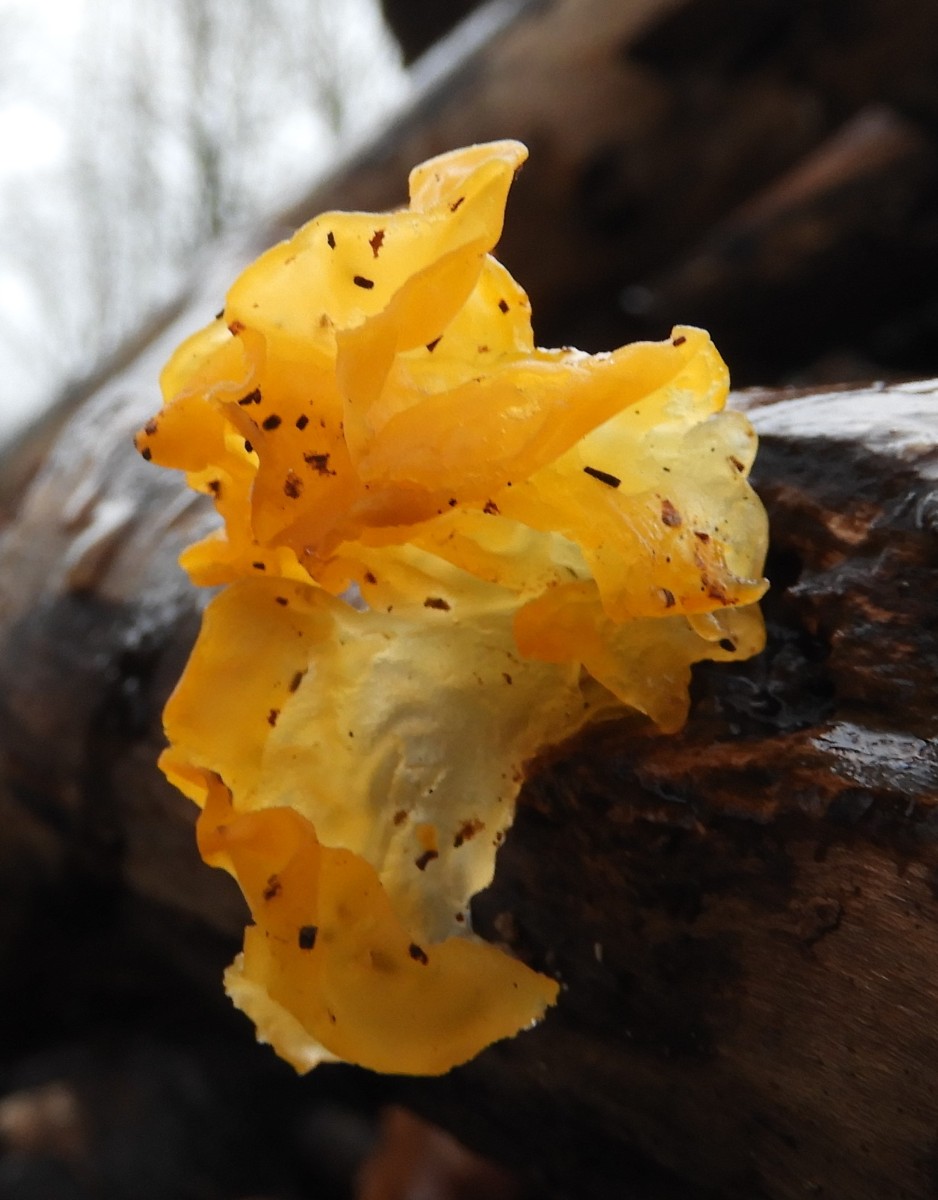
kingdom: Fungi
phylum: Basidiomycota
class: Tremellomycetes
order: Tremellales
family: Tremellaceae
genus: Tremella
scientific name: Tremella mesenterica
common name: gul bævresvamp
